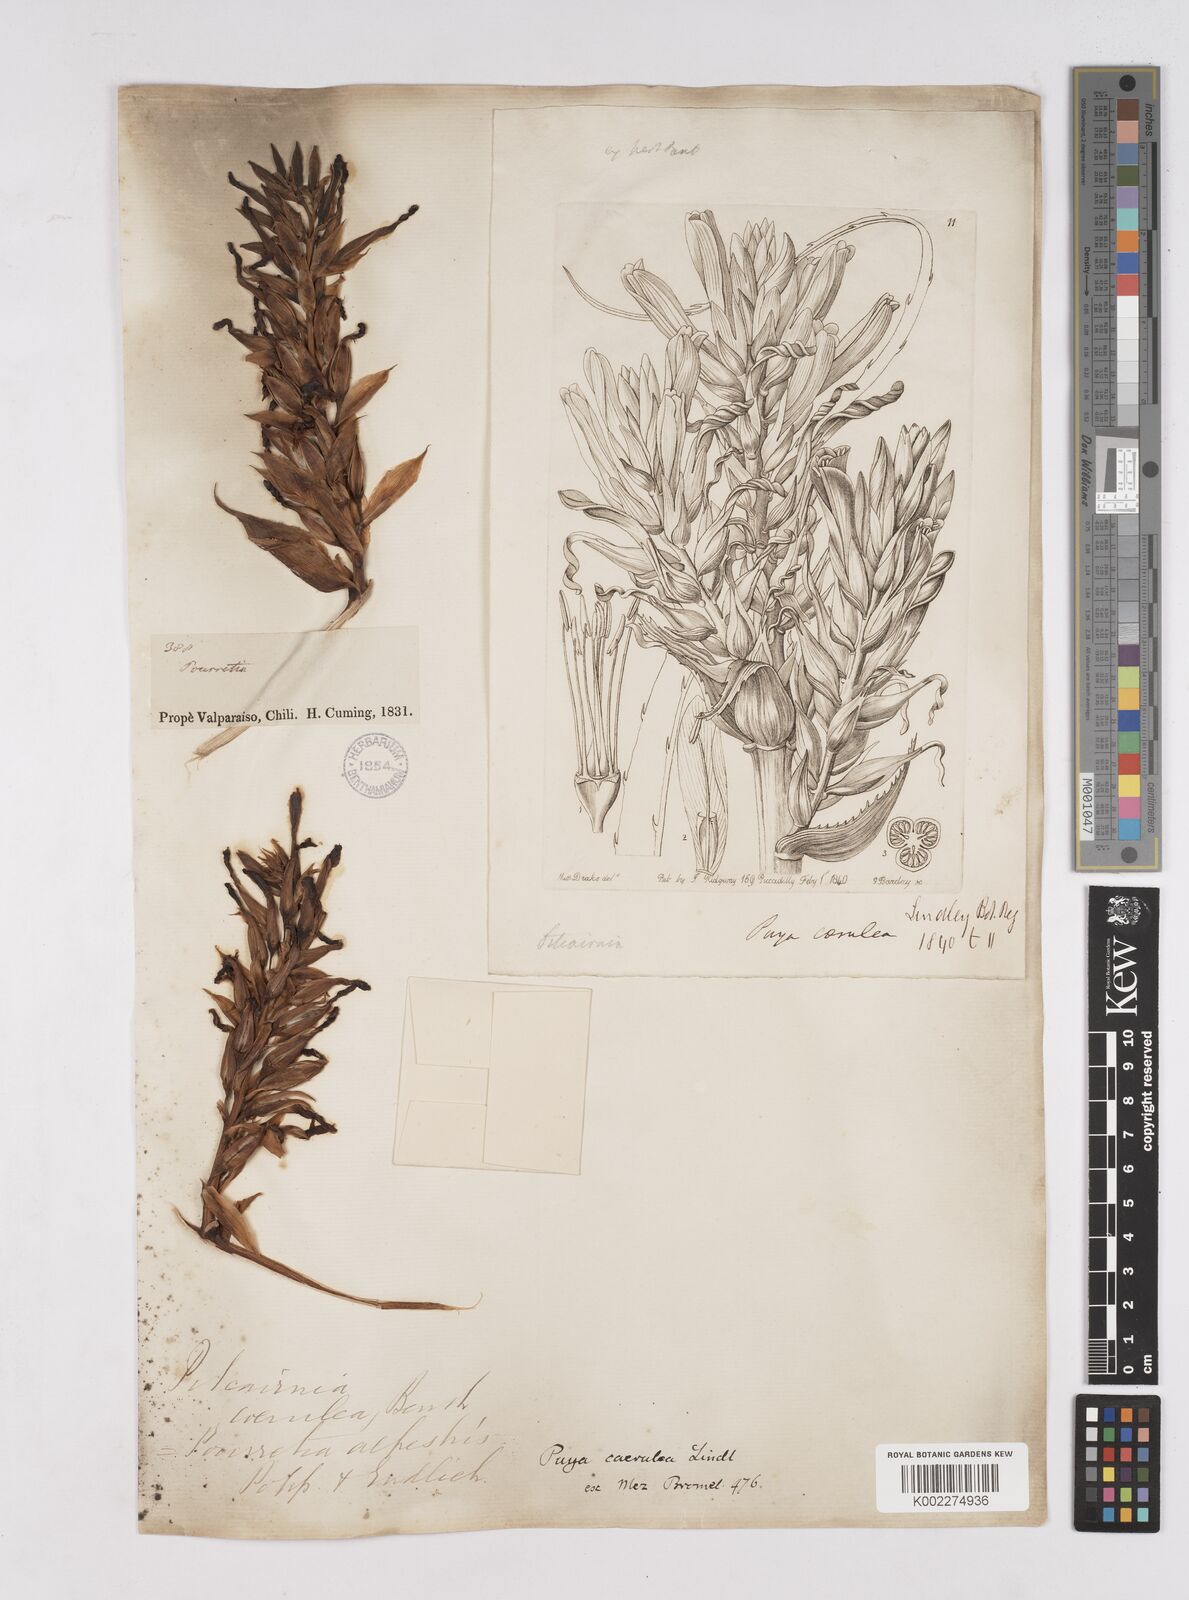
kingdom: Plantae
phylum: Tracheophyta
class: Liliopsida
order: Poales
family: Bromeliaceae
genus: Puya
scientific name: Puya coerulea
